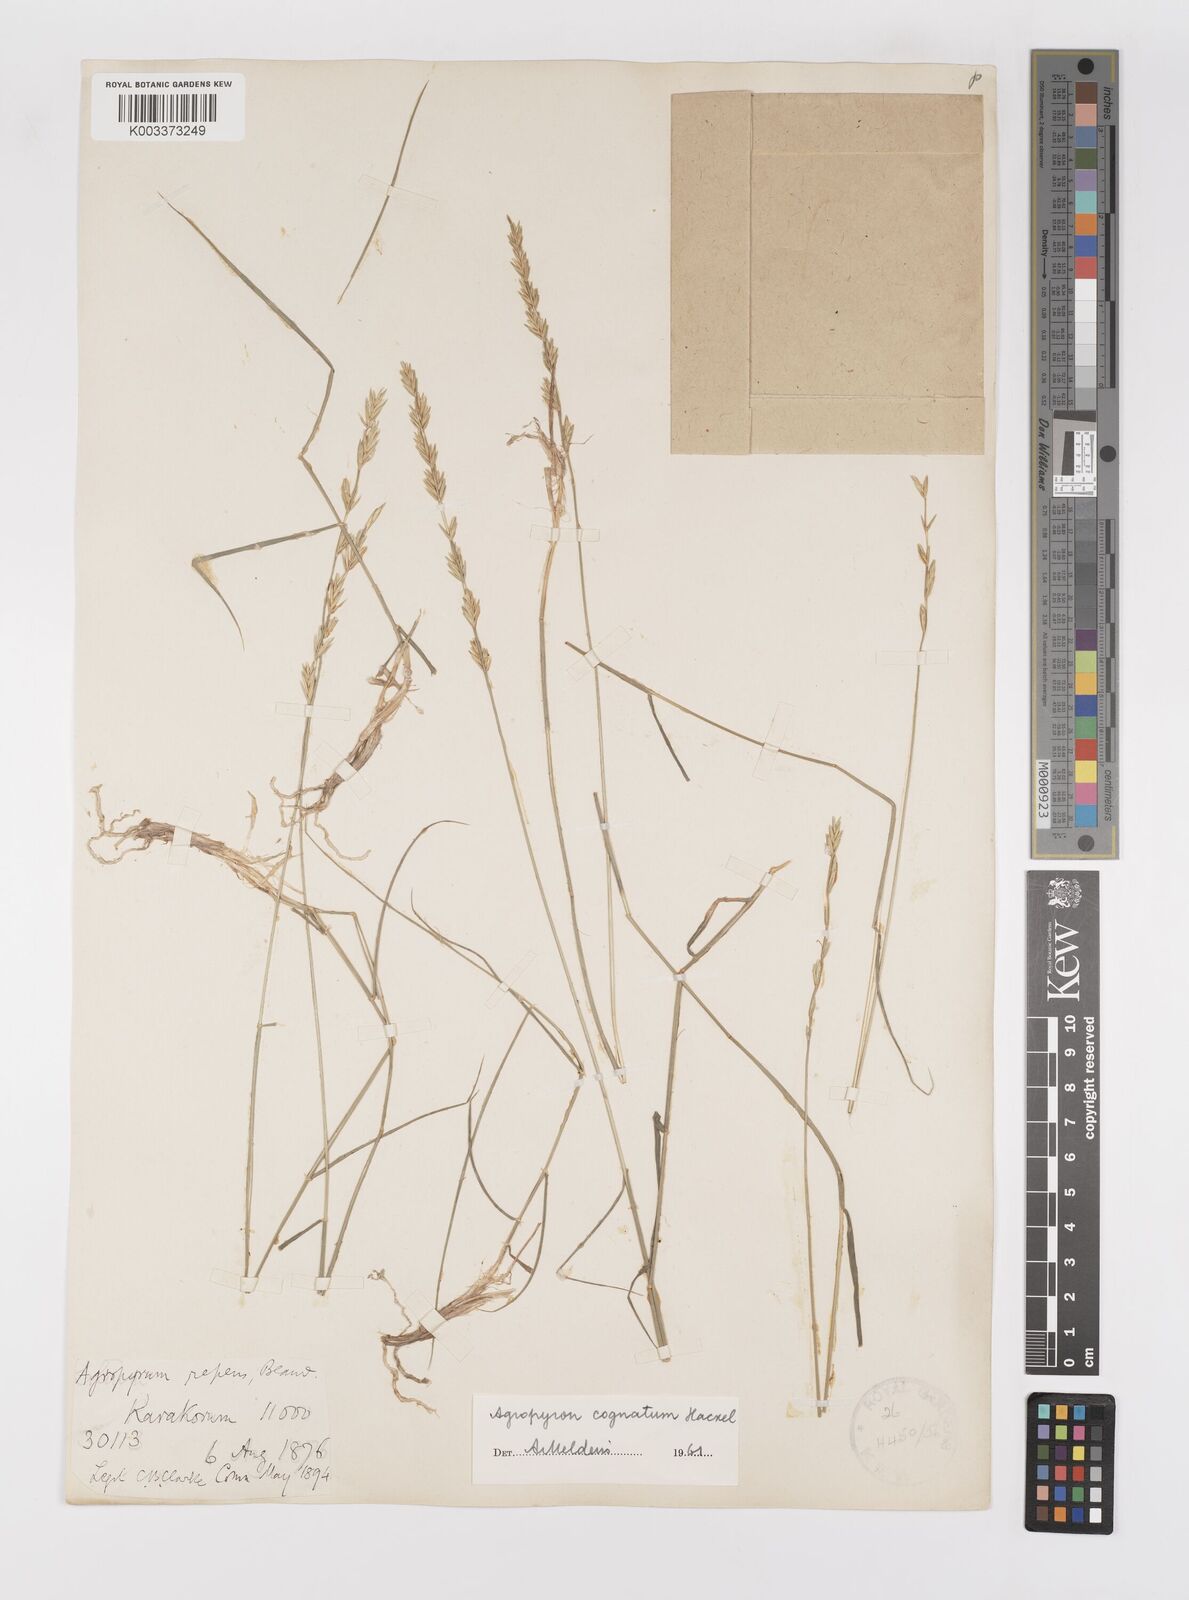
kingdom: Plantae
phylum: Tracheophyta
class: Liliopsida
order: Poales
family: Poaceae
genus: Pseudoroegneria
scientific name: Pseudoroegneria cognata
